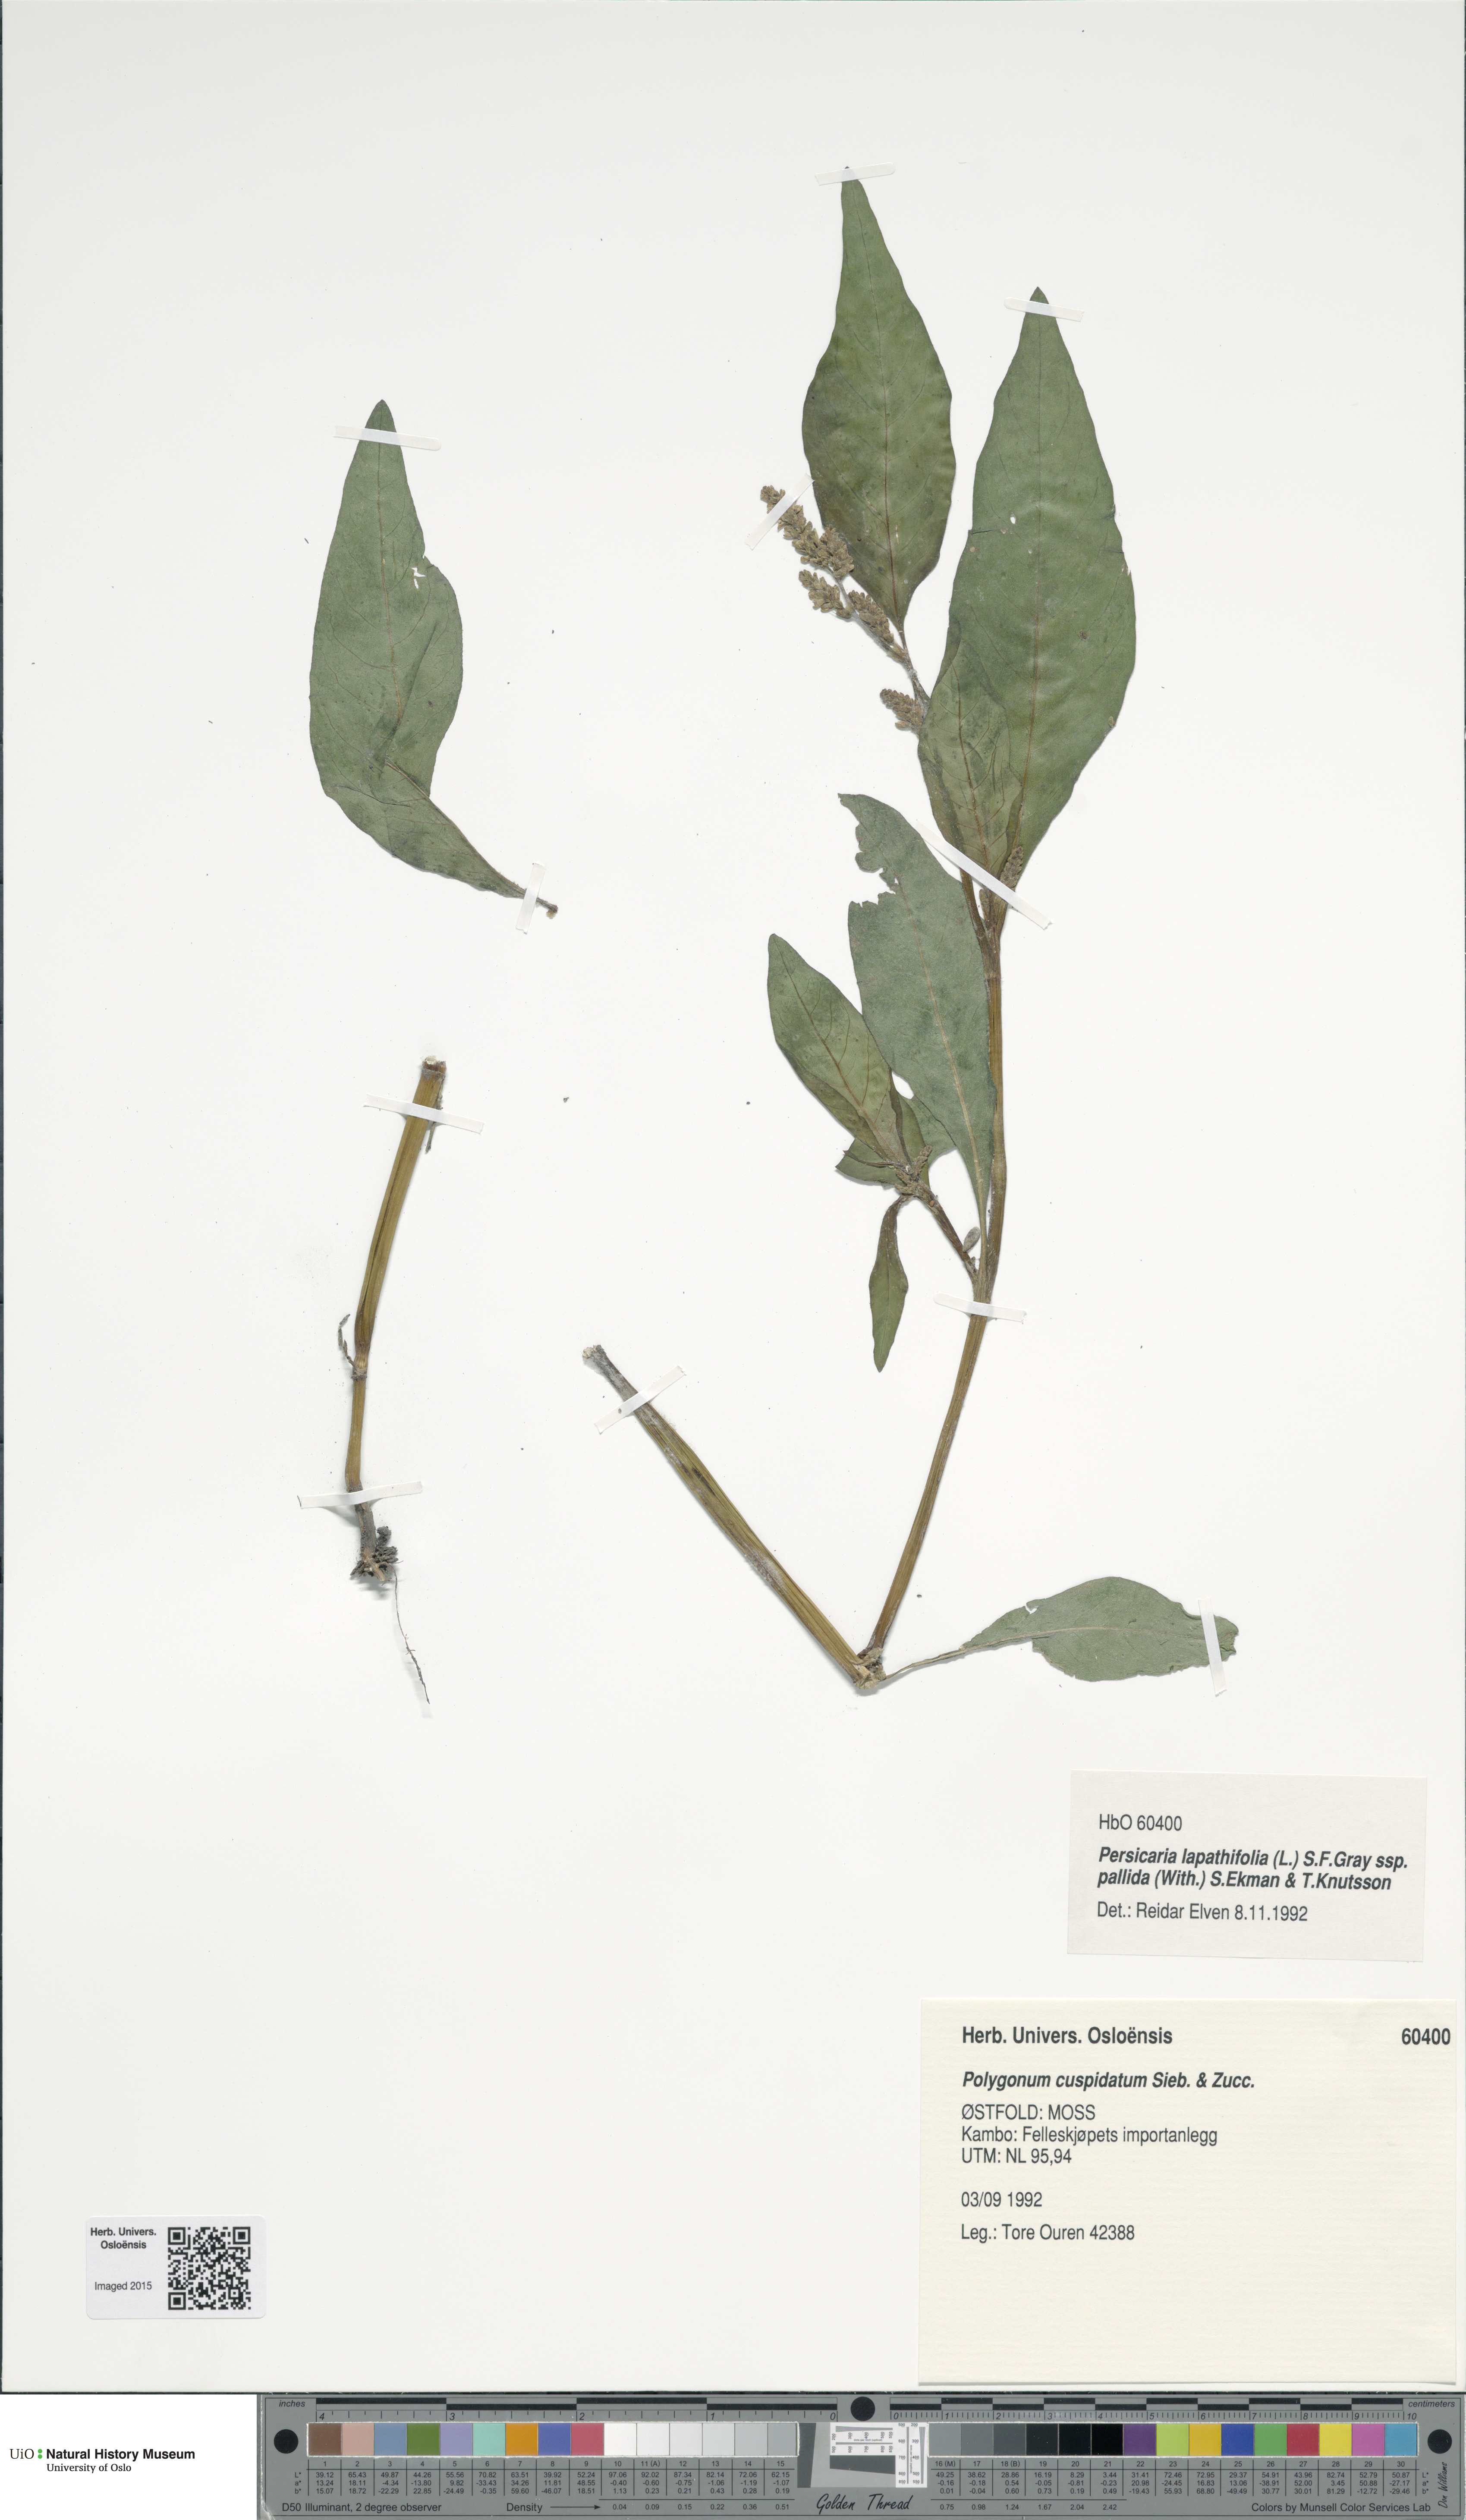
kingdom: Plantae
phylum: Tracheophyta
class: Magnoliopsida
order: Caryophyllales
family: Polygonaceae
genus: Persicaria
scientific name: Persicaria lapathifolia
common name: Curlytop knotweed
